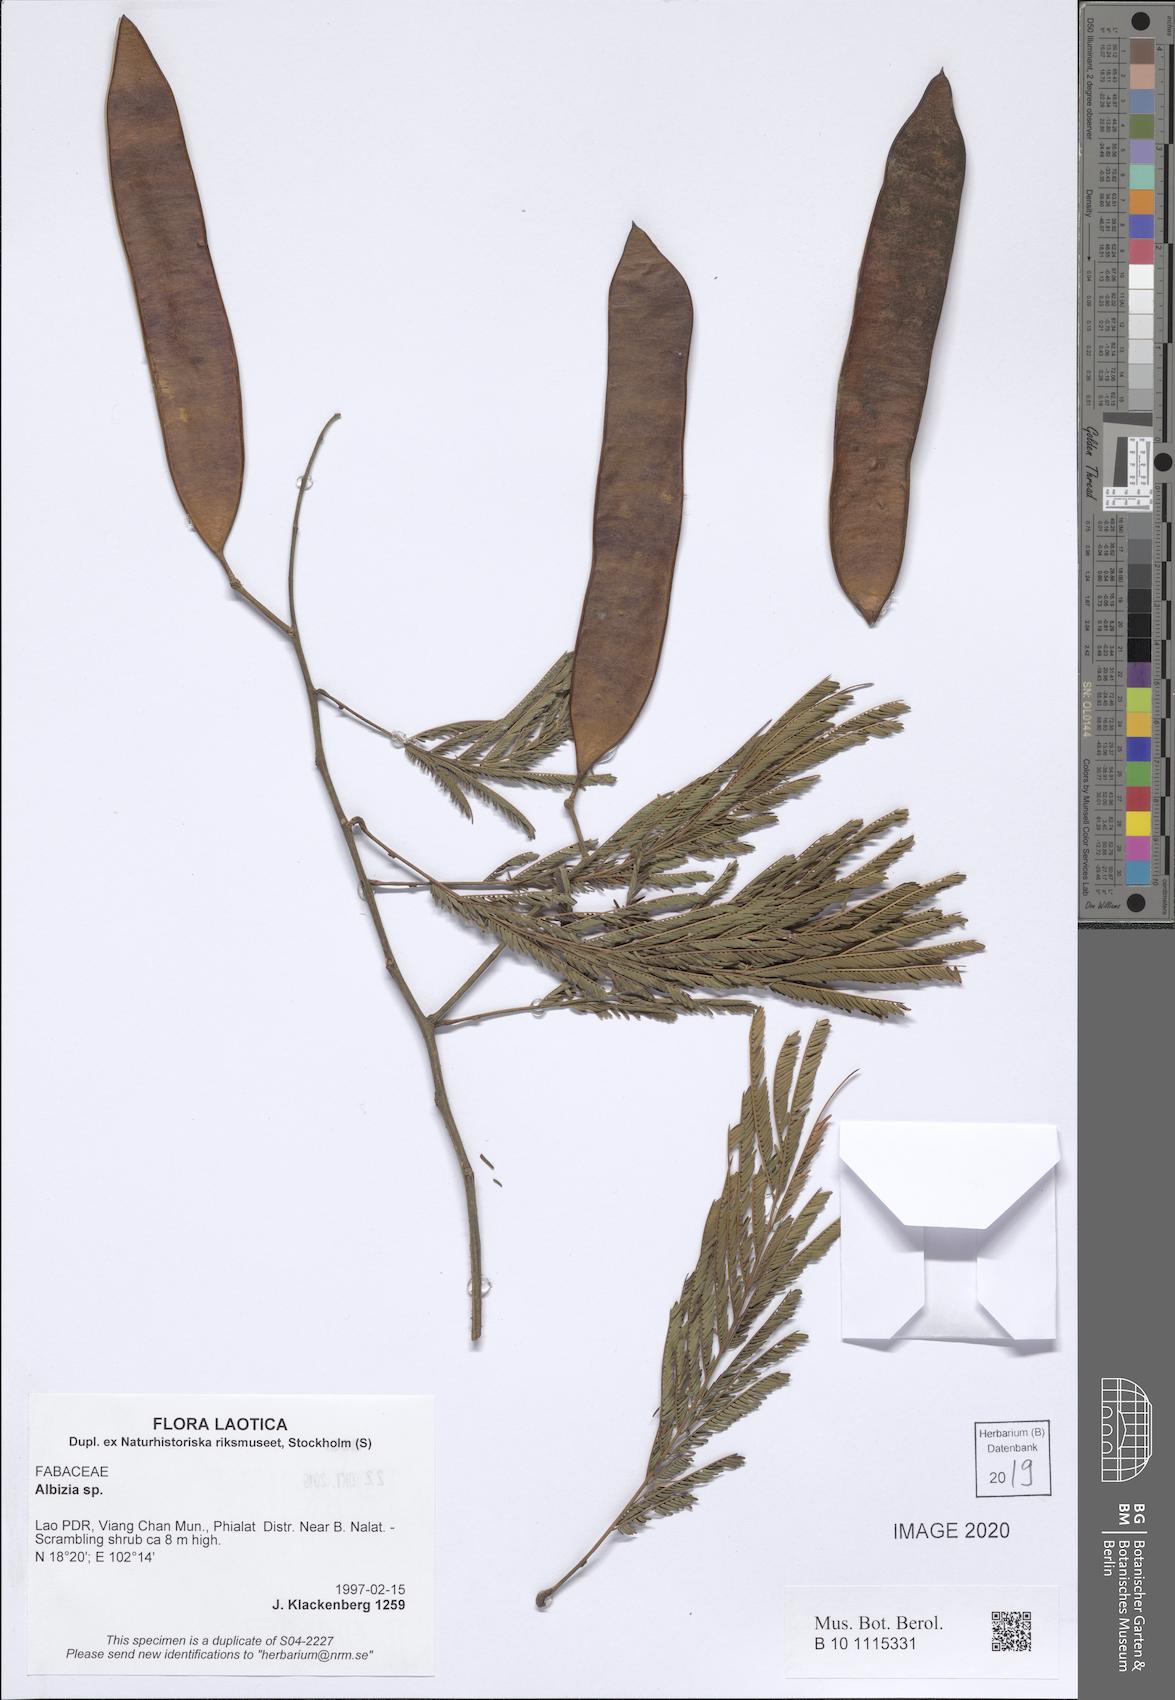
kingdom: Plantae
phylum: Tracheophyta
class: Magnoliopsida
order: Fabales
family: Fabaceae
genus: Albizia
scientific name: Albizia
